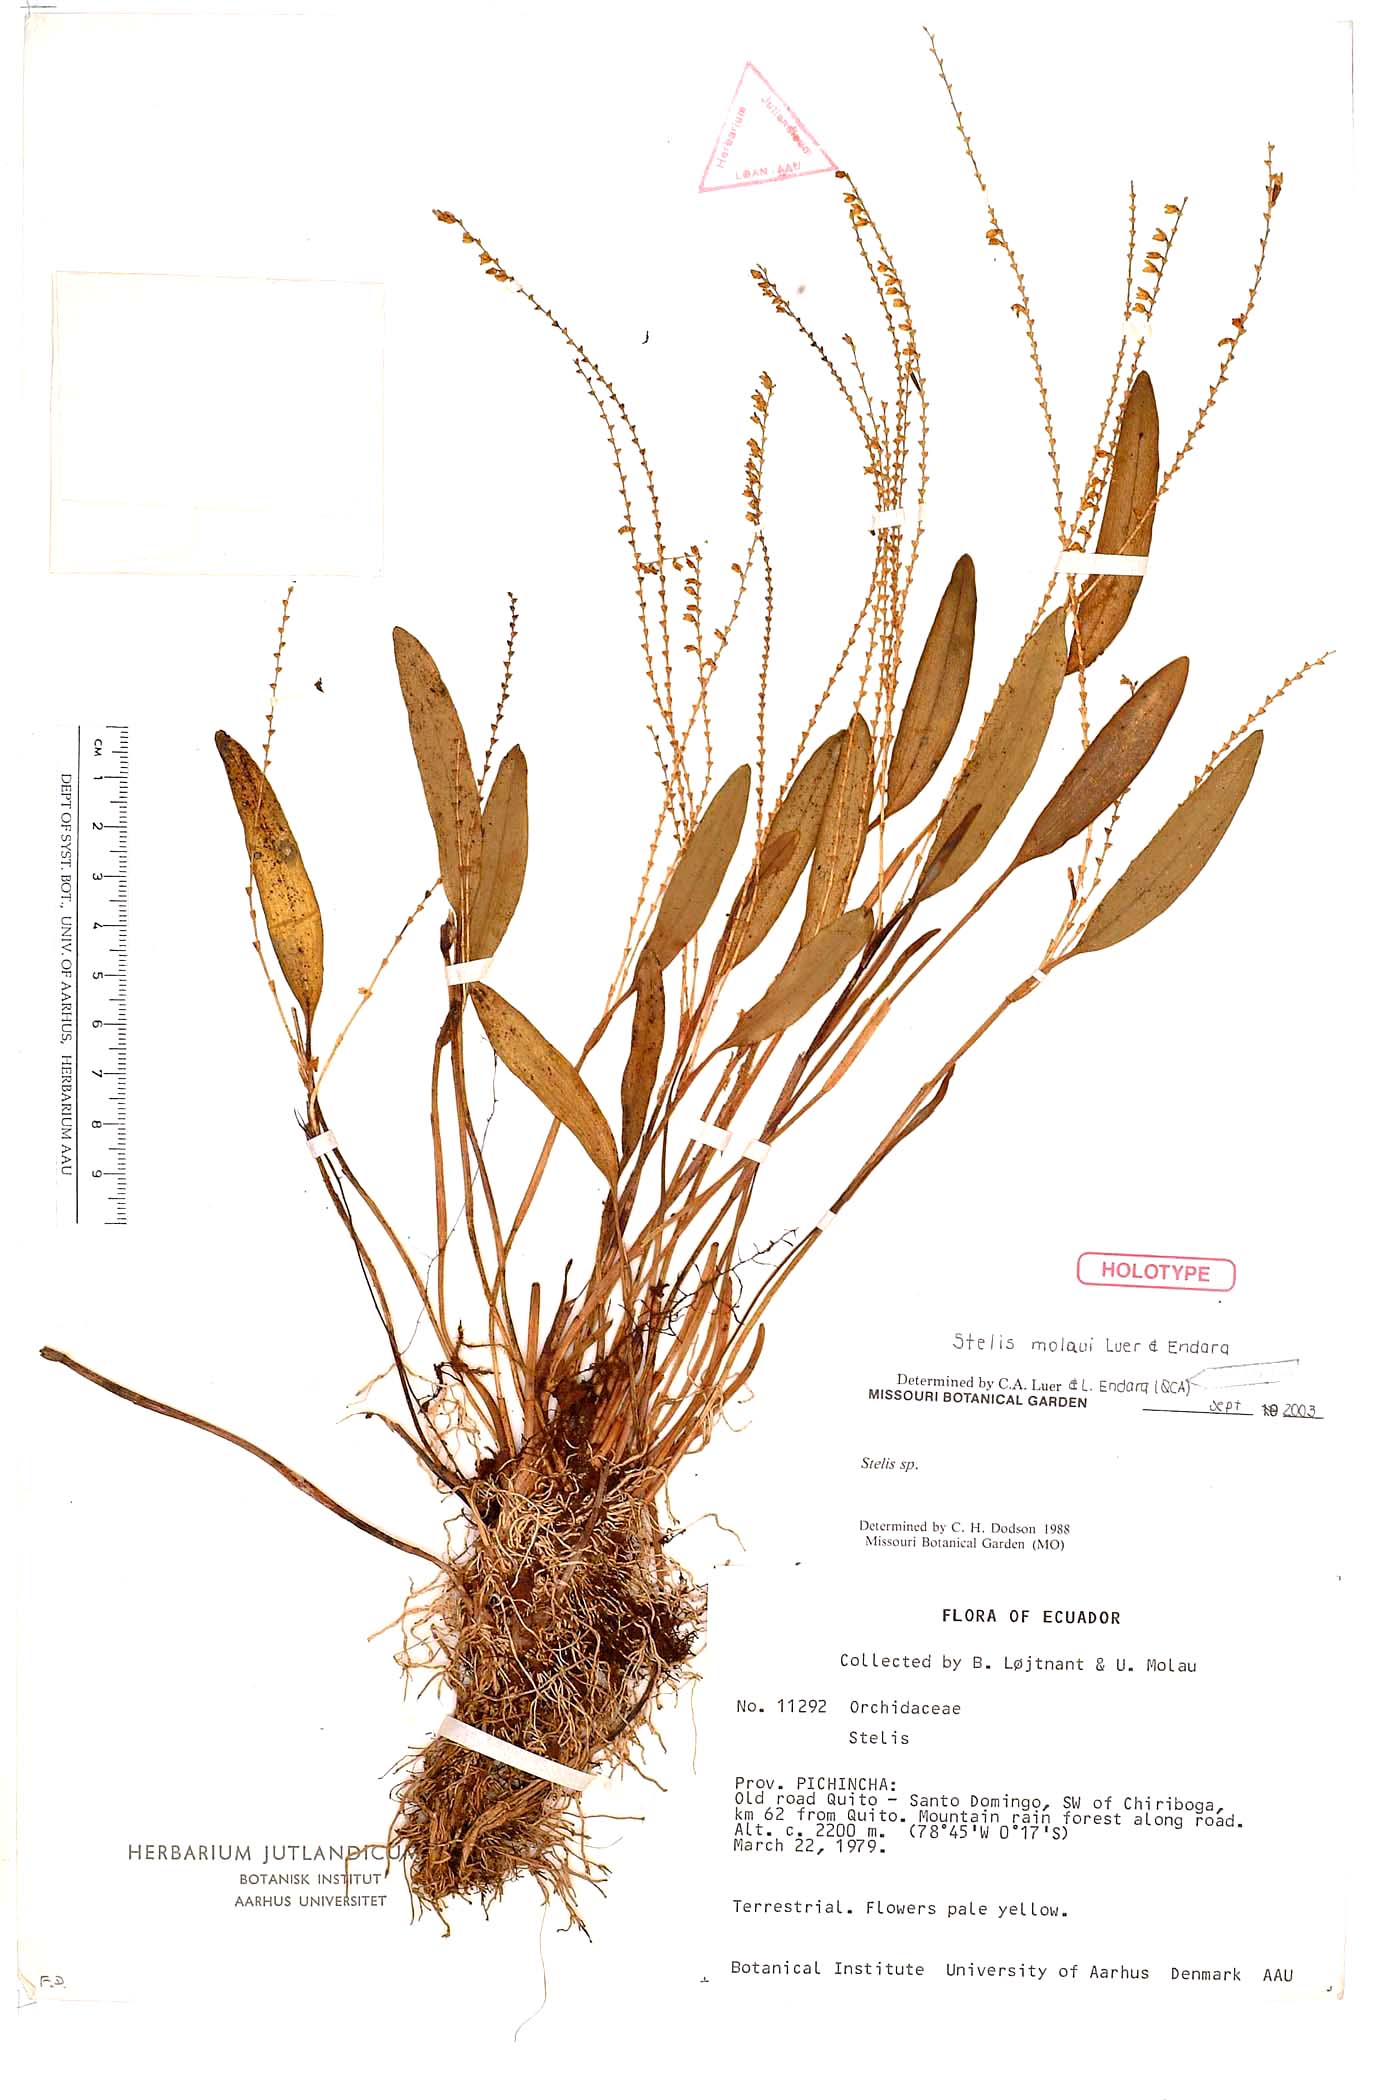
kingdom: Plantae
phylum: Tracheophyta
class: Liliopsida
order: Asparagales
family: Orchidaceae
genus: Stelis
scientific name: Stelis molaui
